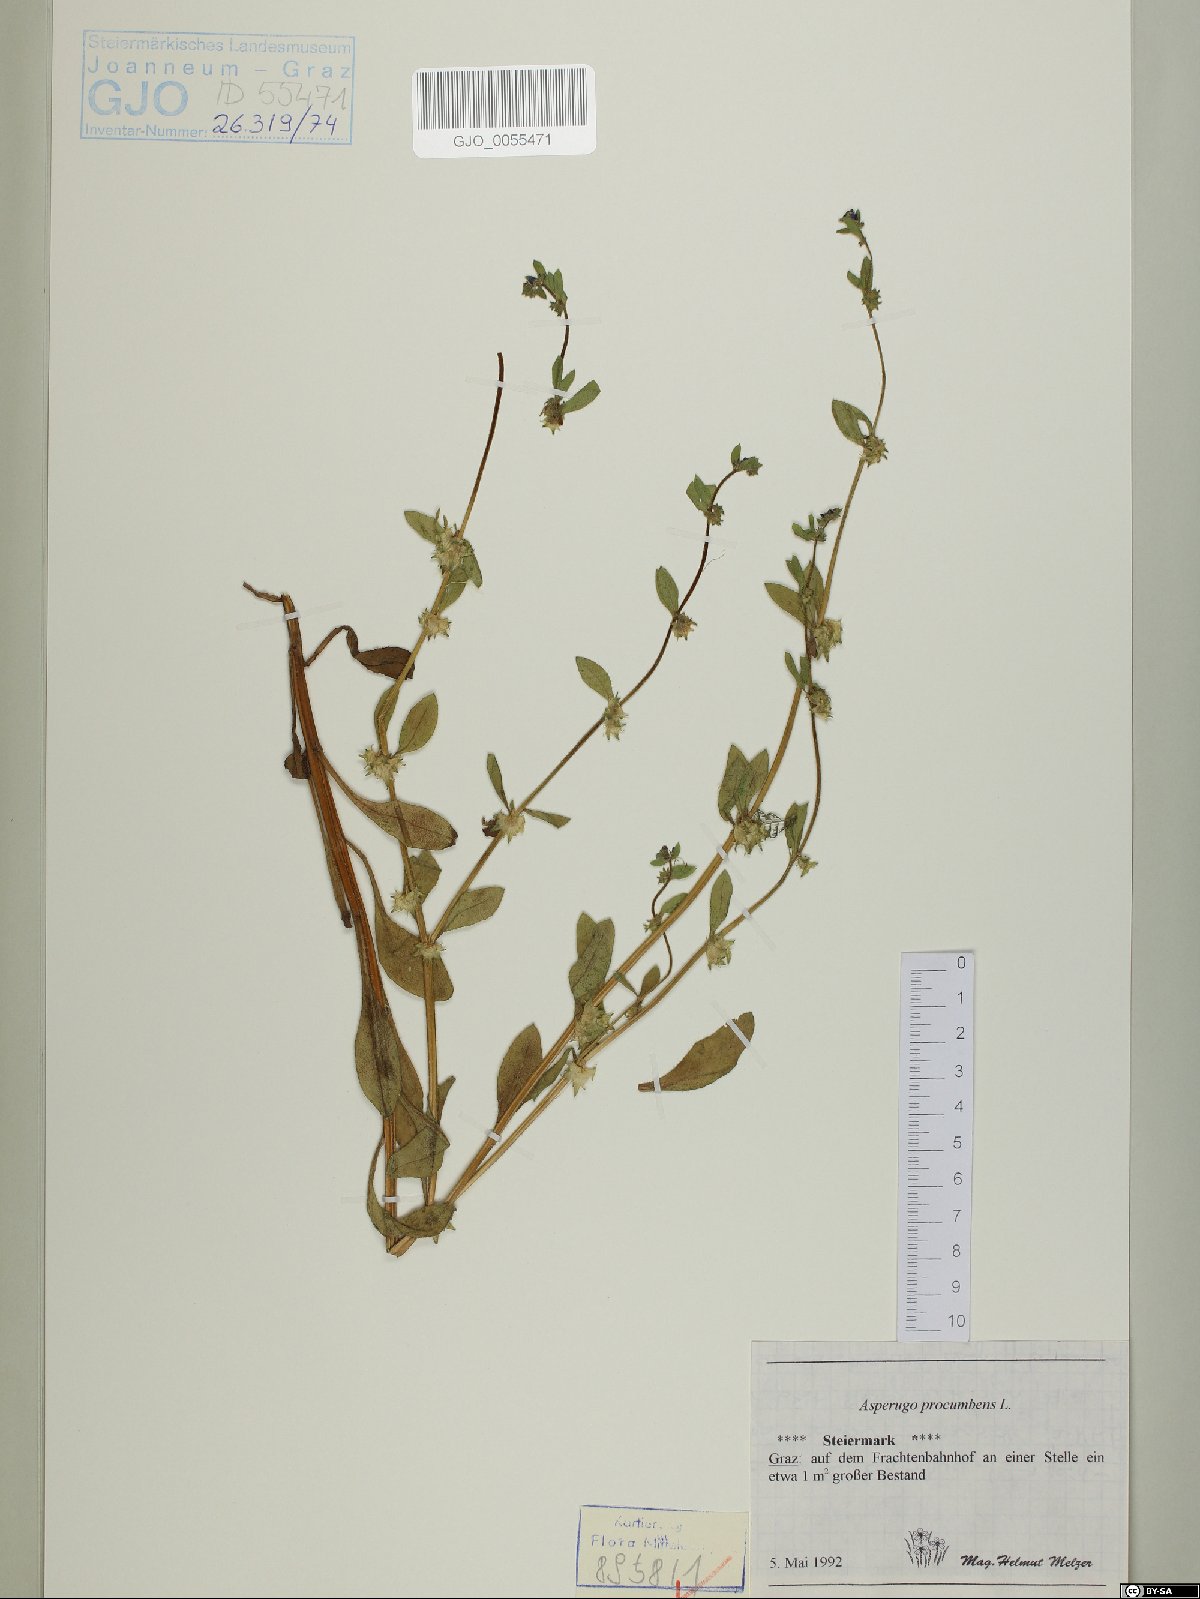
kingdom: Plantae
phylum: Tracheophyta
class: Magnoliopsida
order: Boraginales
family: Boraginaceae
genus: Asperugo
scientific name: Asperugo procumbens
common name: Madwort
